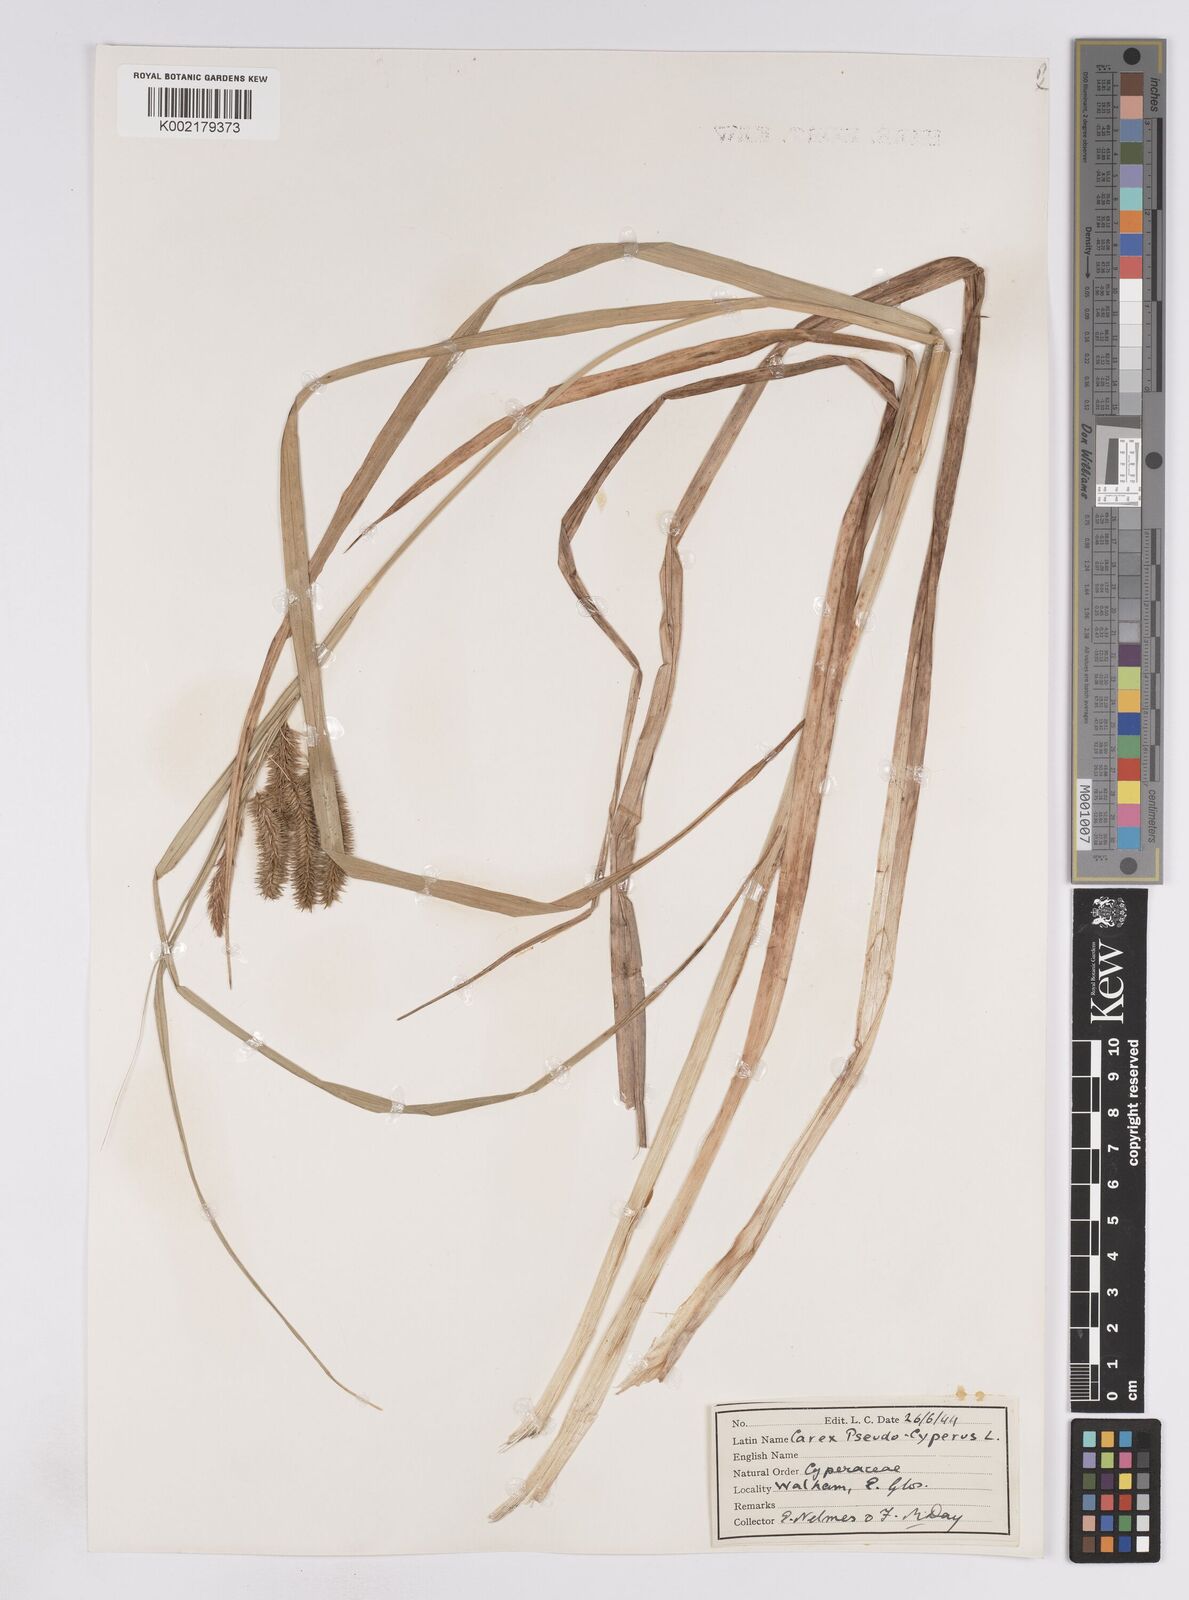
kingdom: Plantae
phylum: Tracheophyta
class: Liliopsida
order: Poales
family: Cyperaceae
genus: Carex
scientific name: Carex pseudocyperus
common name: Cyperus sedge
